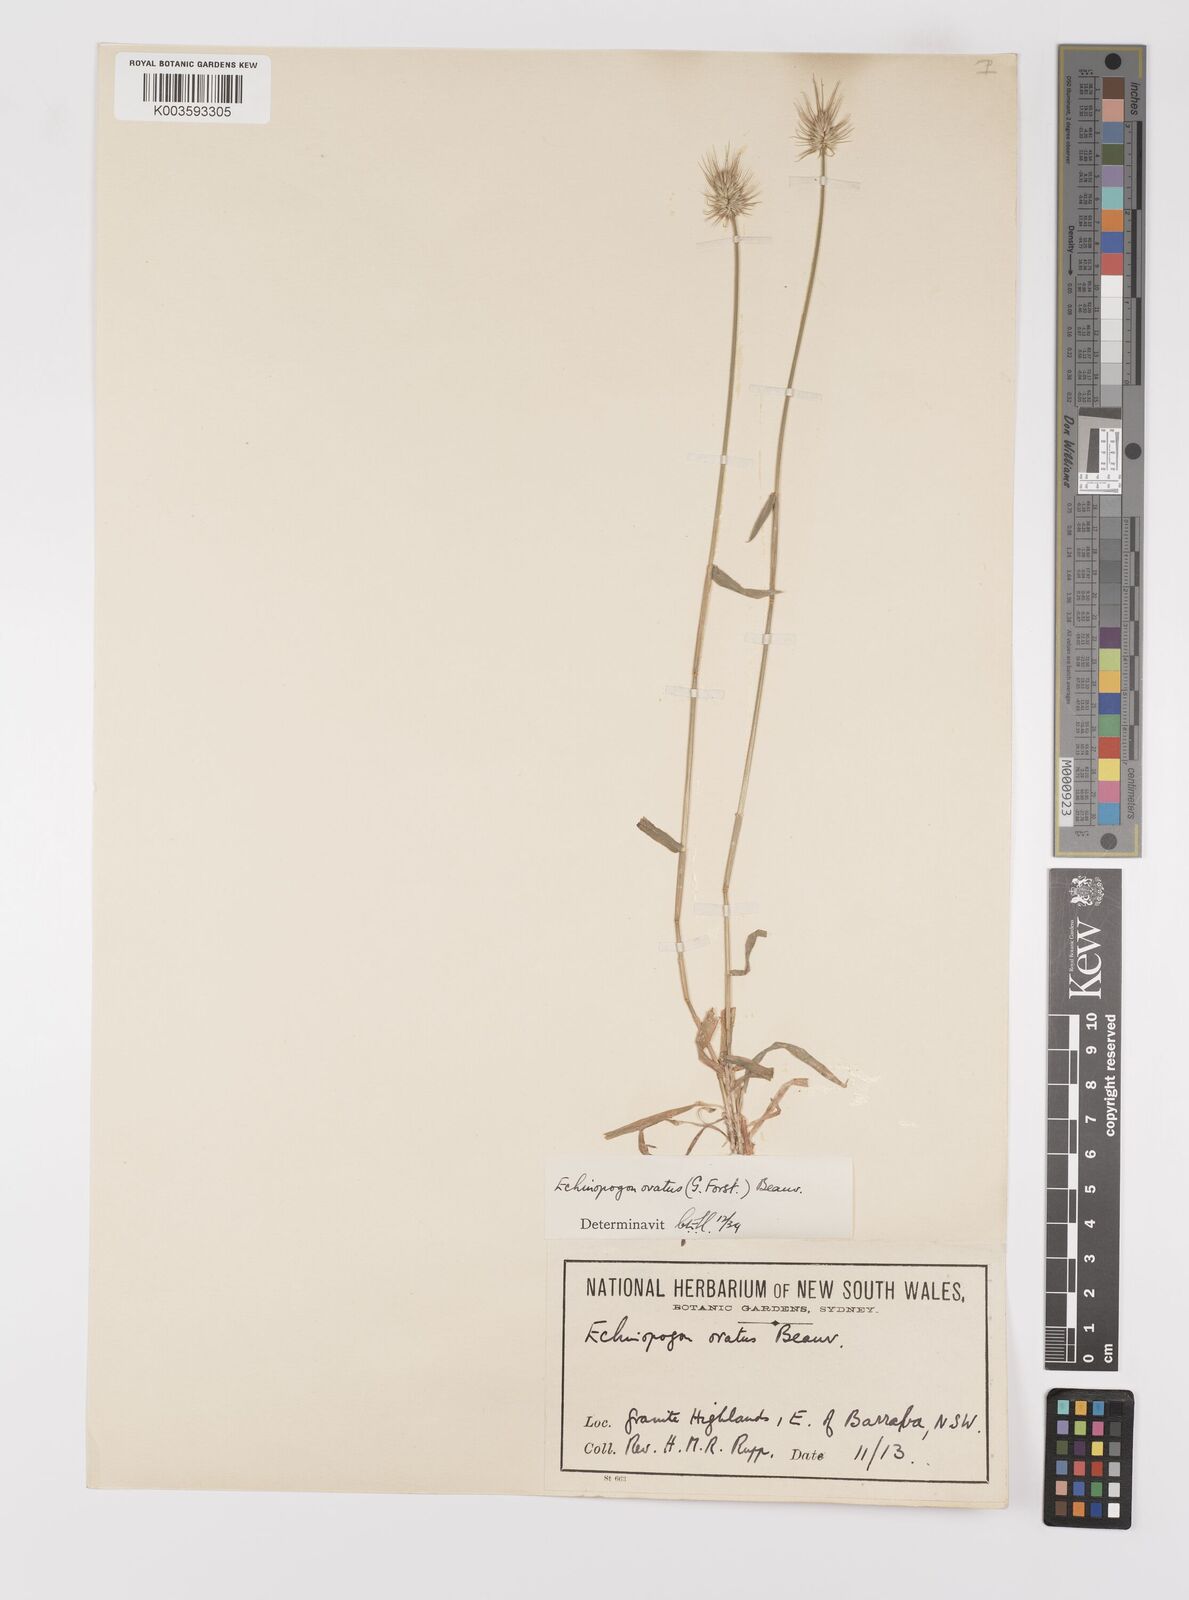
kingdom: Plantae
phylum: Tracheophyta
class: Liliopsida
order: Poales
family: Poaceae
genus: Echinopogon
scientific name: Echinopogon ovatus
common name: Hedgehog-grass
